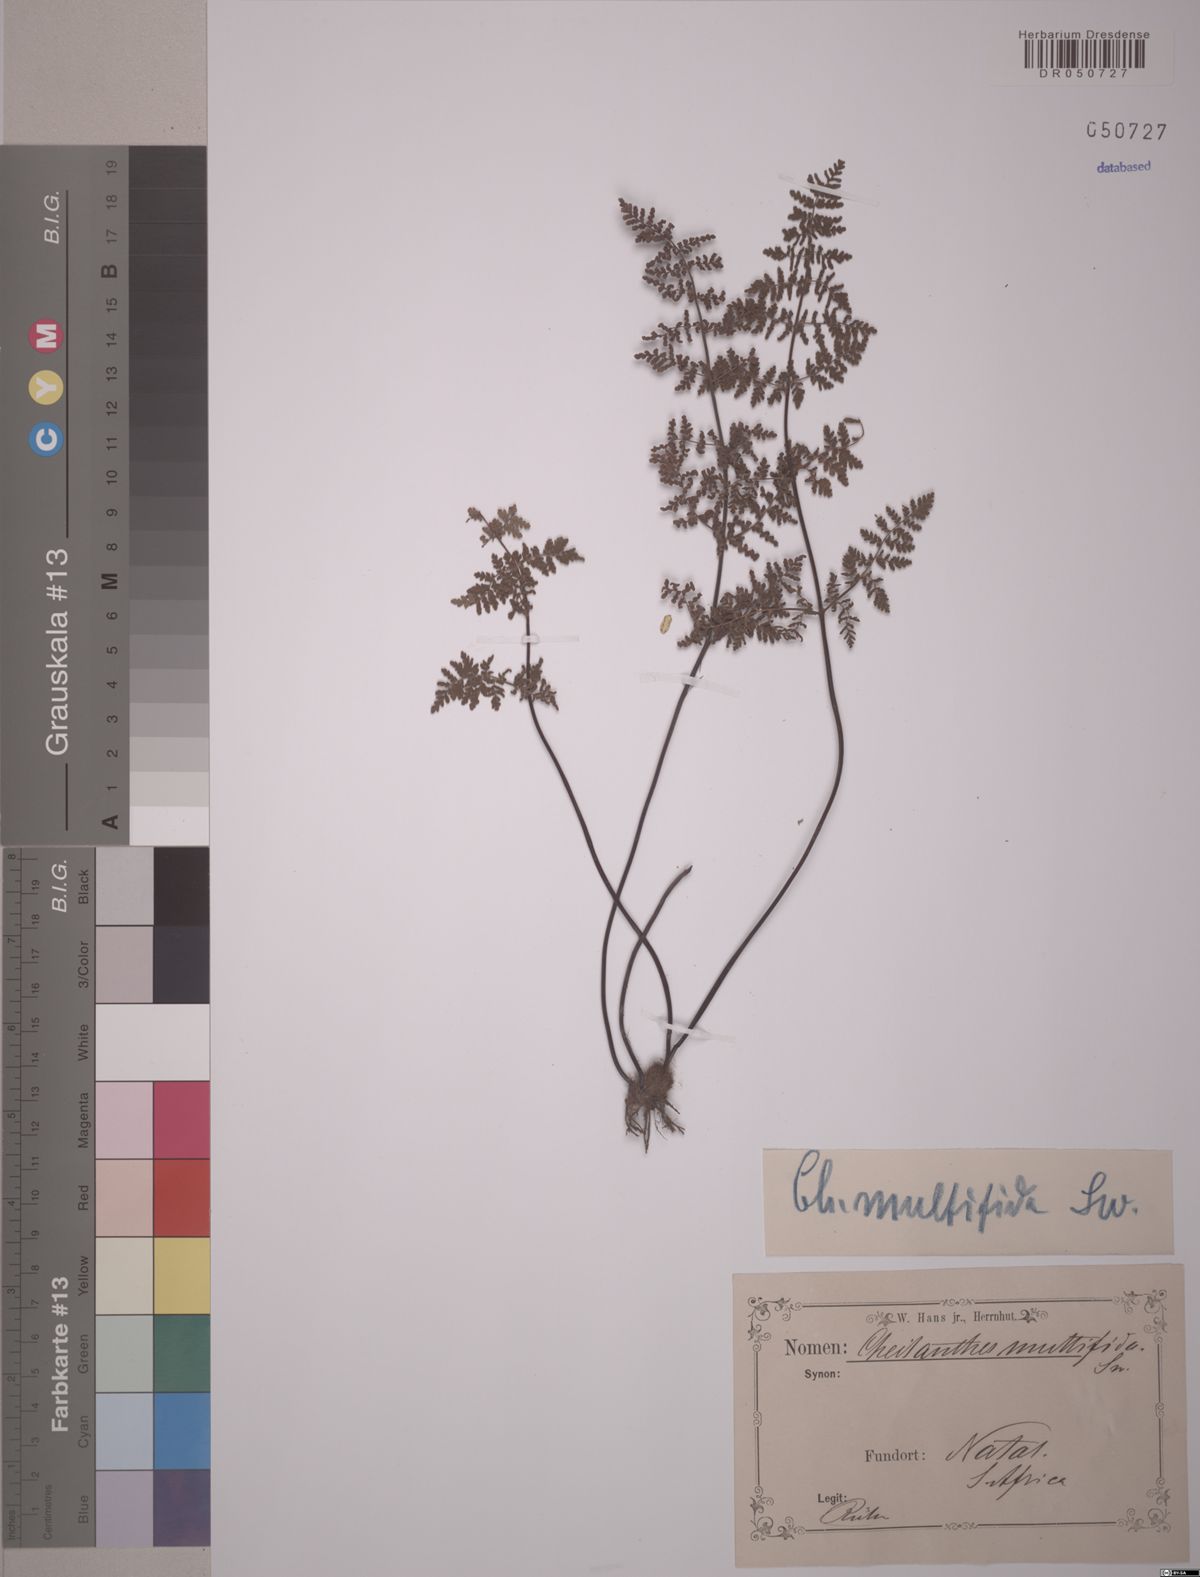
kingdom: Plantae
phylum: Tracheophyta
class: Polypodiopsida
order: Polypodiales
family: Pteridaceae
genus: Cheilanthes
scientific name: Cheilanthes multifida
